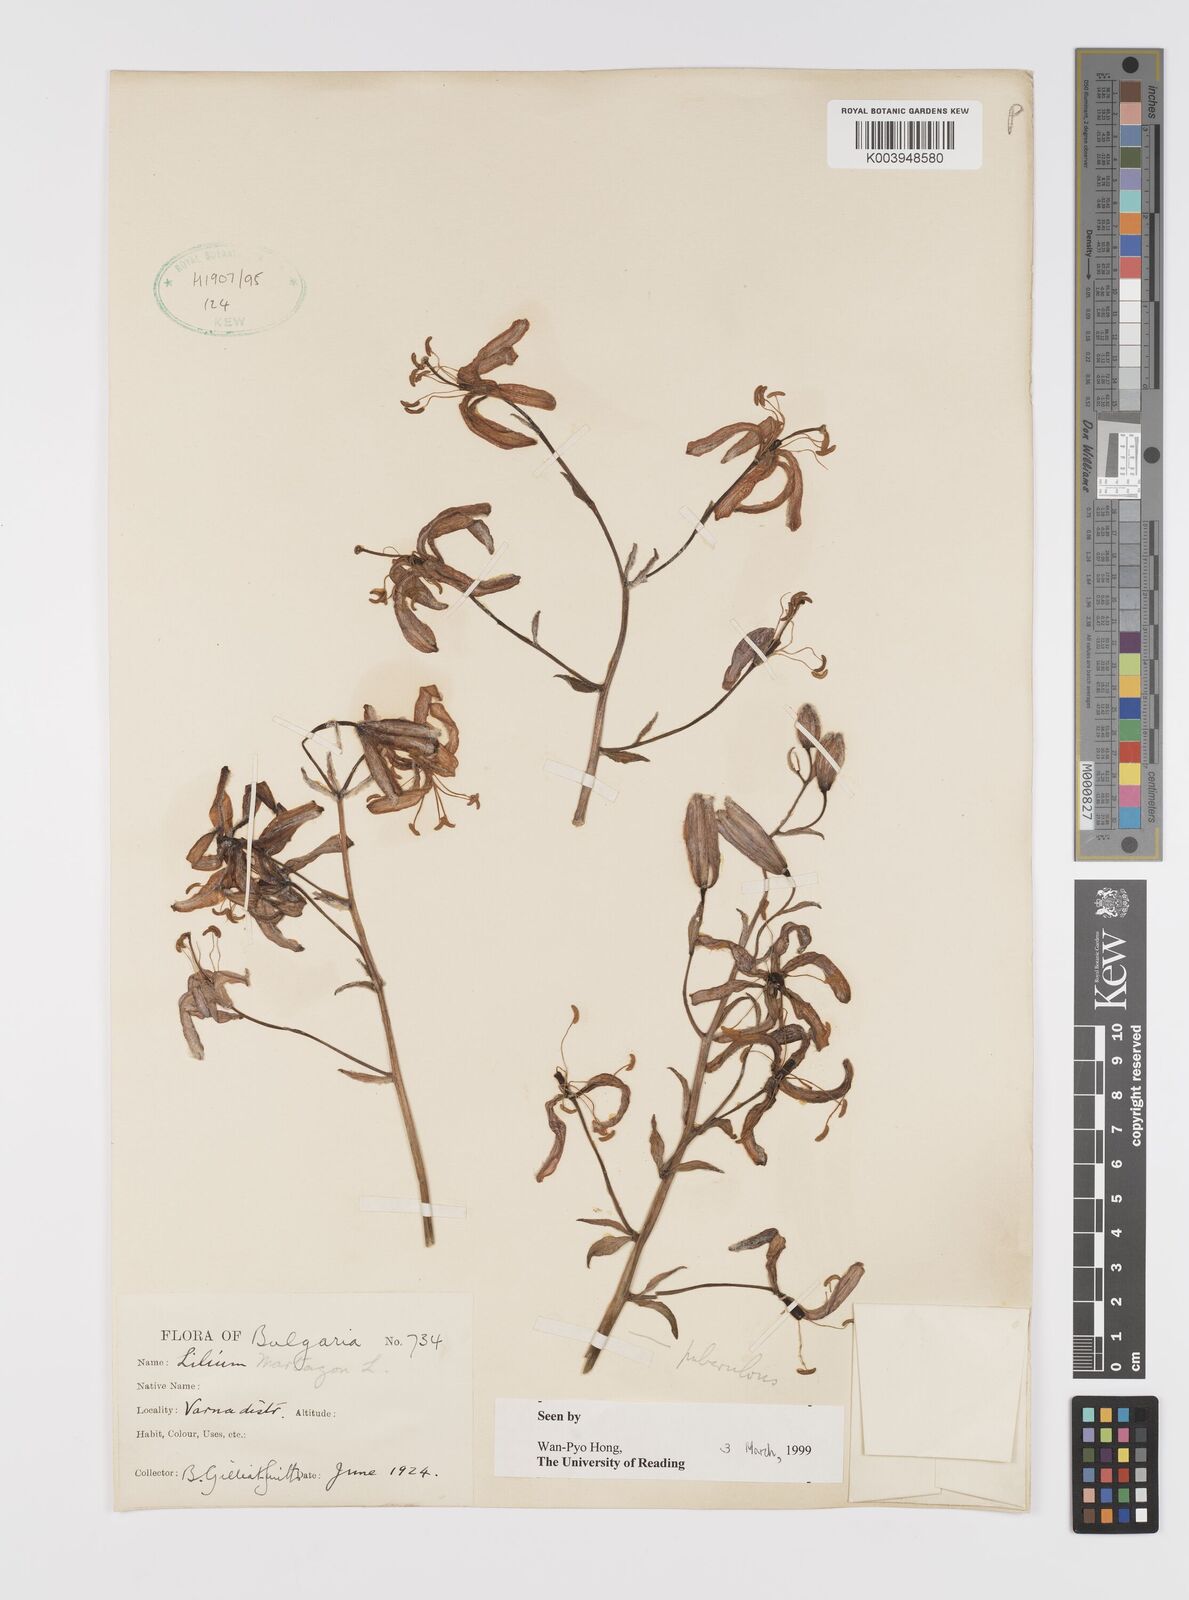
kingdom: Plantae
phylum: Tracheophyta
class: Liliopsida
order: Liliales
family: Liliaceae
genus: Lilium
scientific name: Lilium martagon
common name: Martagon lily
